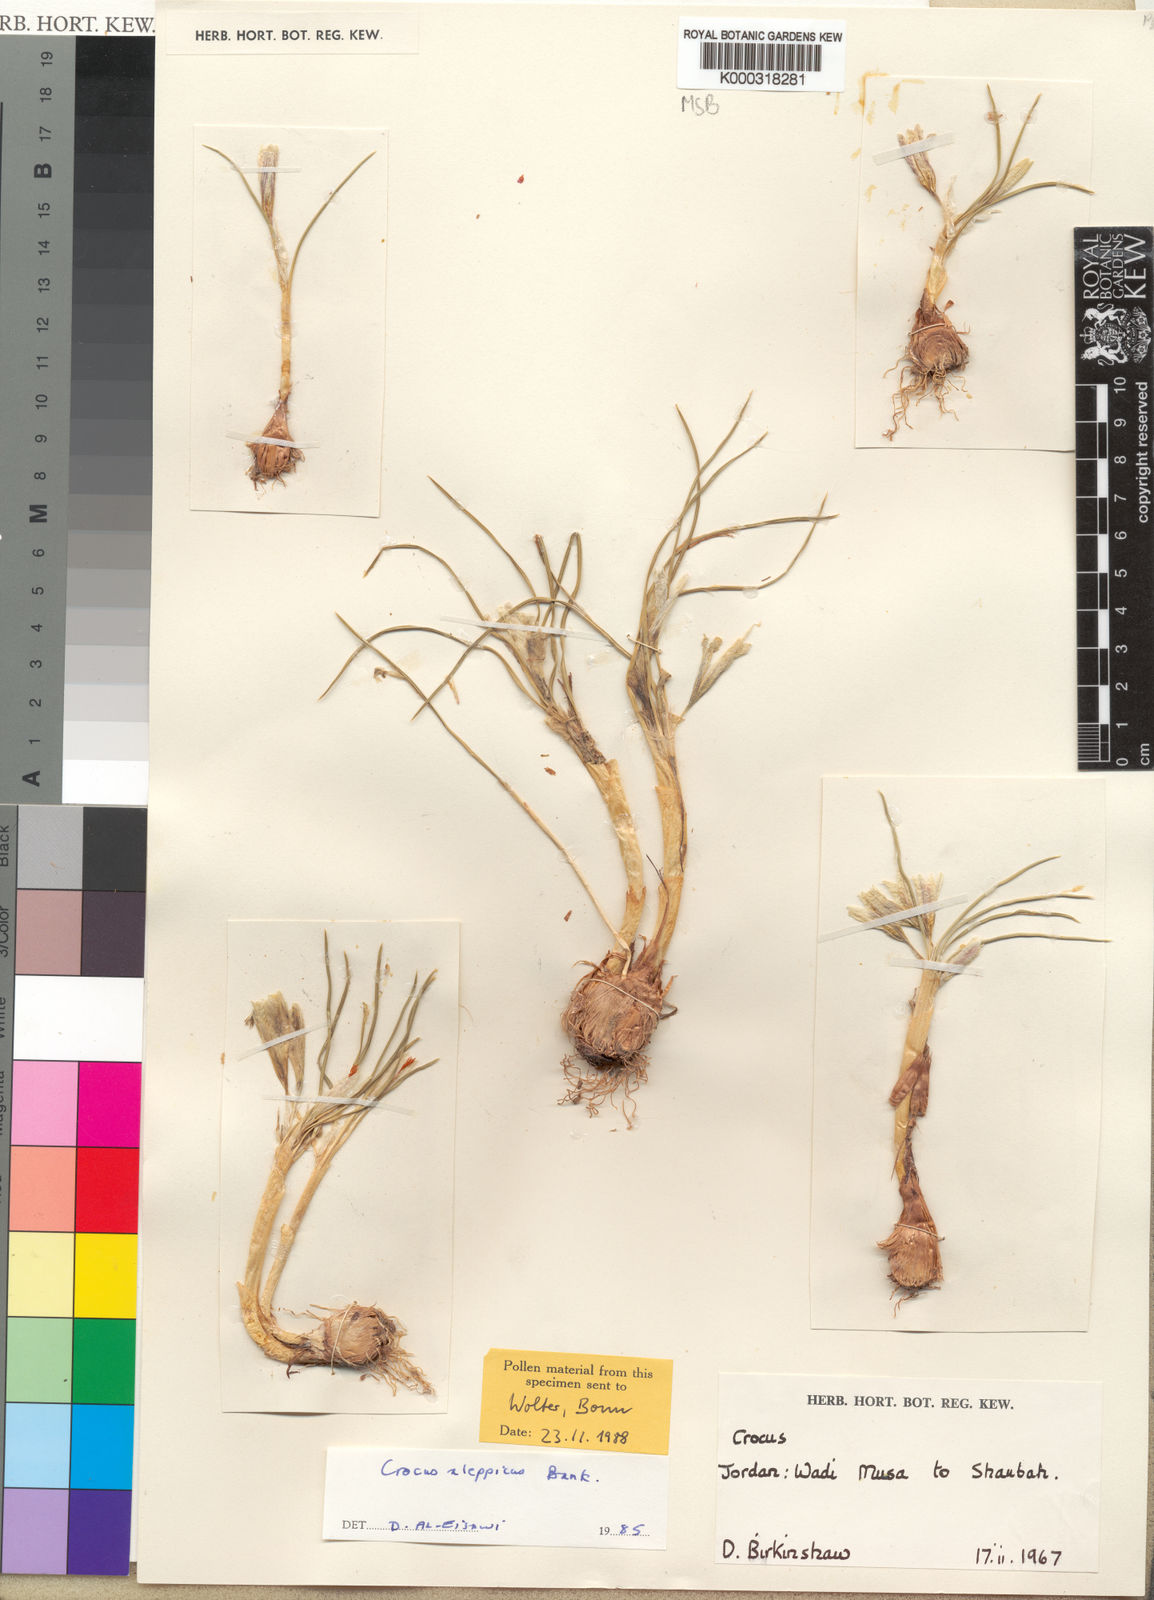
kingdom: Plantae
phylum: Tracheophyta
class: Liliopsida
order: Asparagales
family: Iridaceae
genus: Crocus
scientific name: Crocus aleppicus
